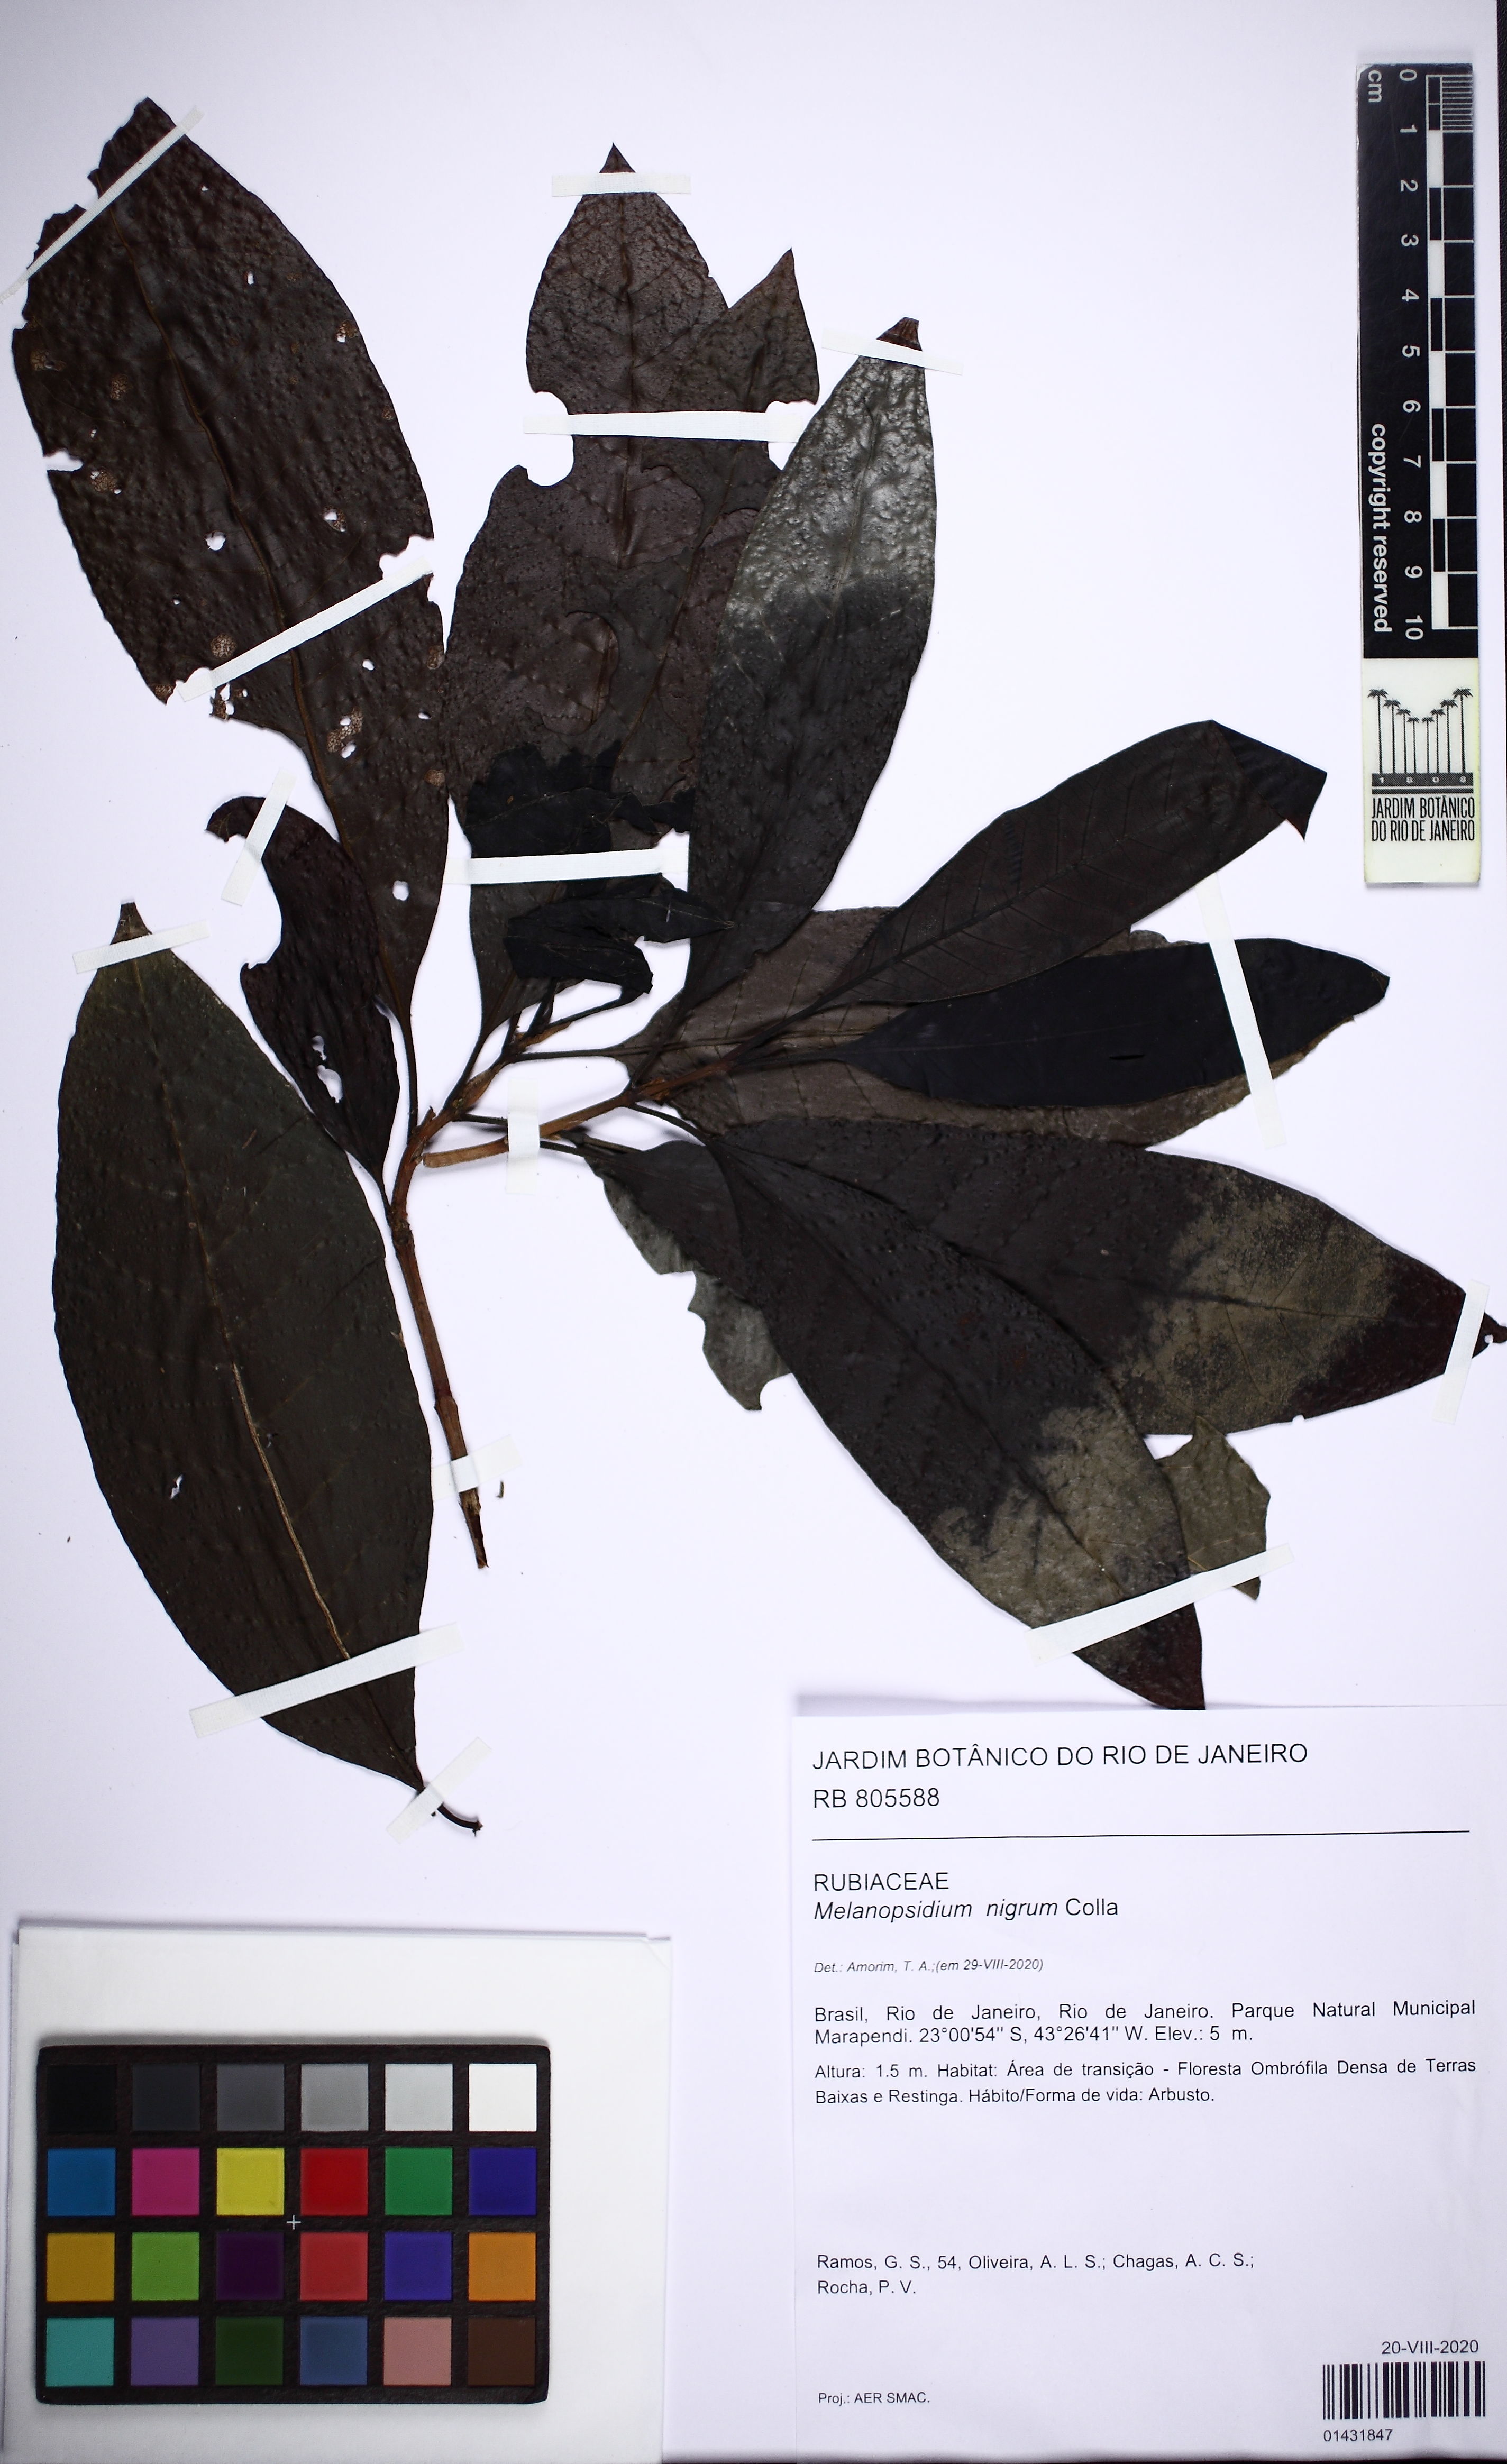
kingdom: Plantae
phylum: Tracheophyta
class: Magnoliopsida
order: Gentianales
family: Rubiaceae
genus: Melanopsidium
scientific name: Melanopsidium nigrum
